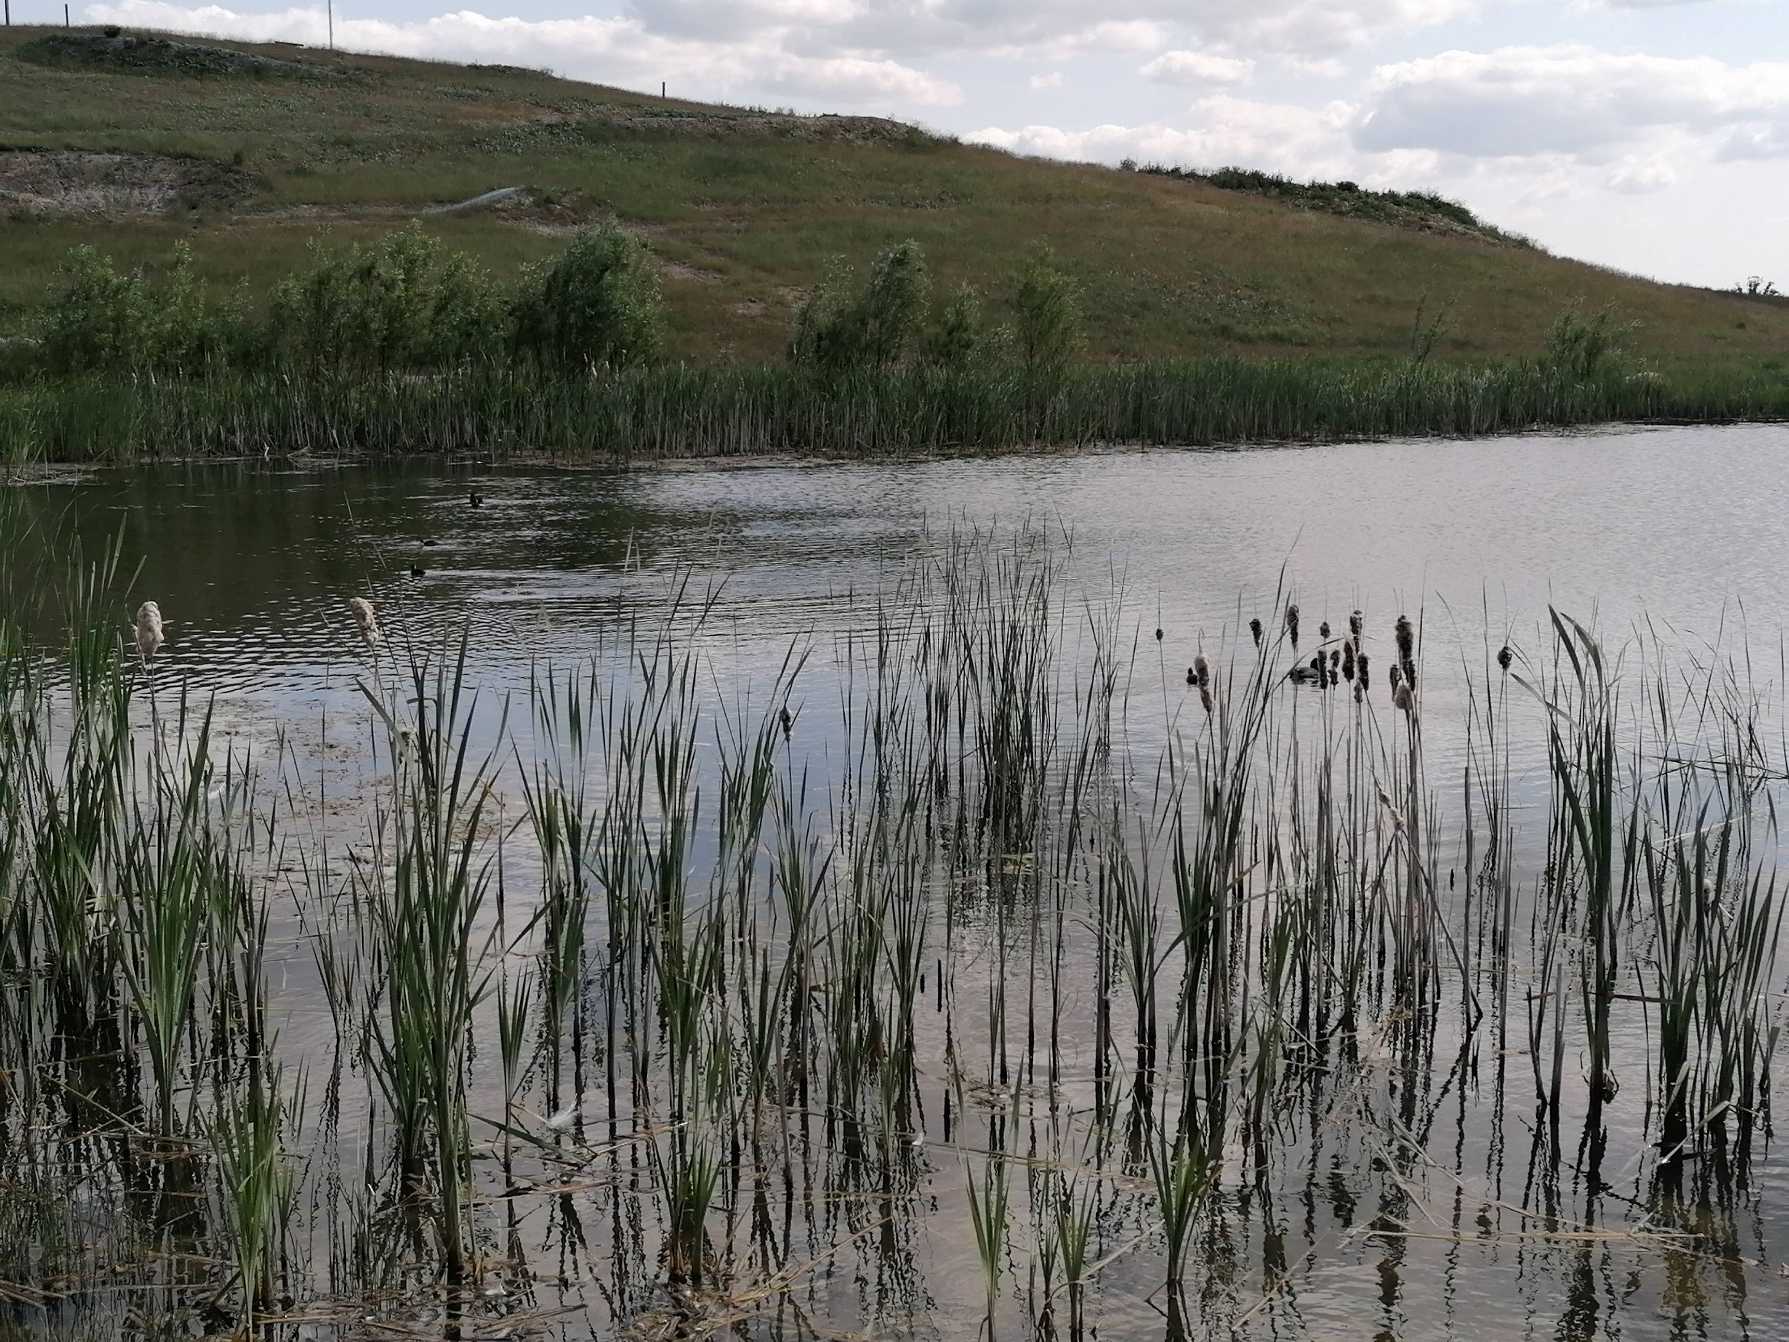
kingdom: Animalia
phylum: Chordata
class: Aves
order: Gruiformes
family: Rallidae
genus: Fulica
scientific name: Fulica atra
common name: Blishøne
